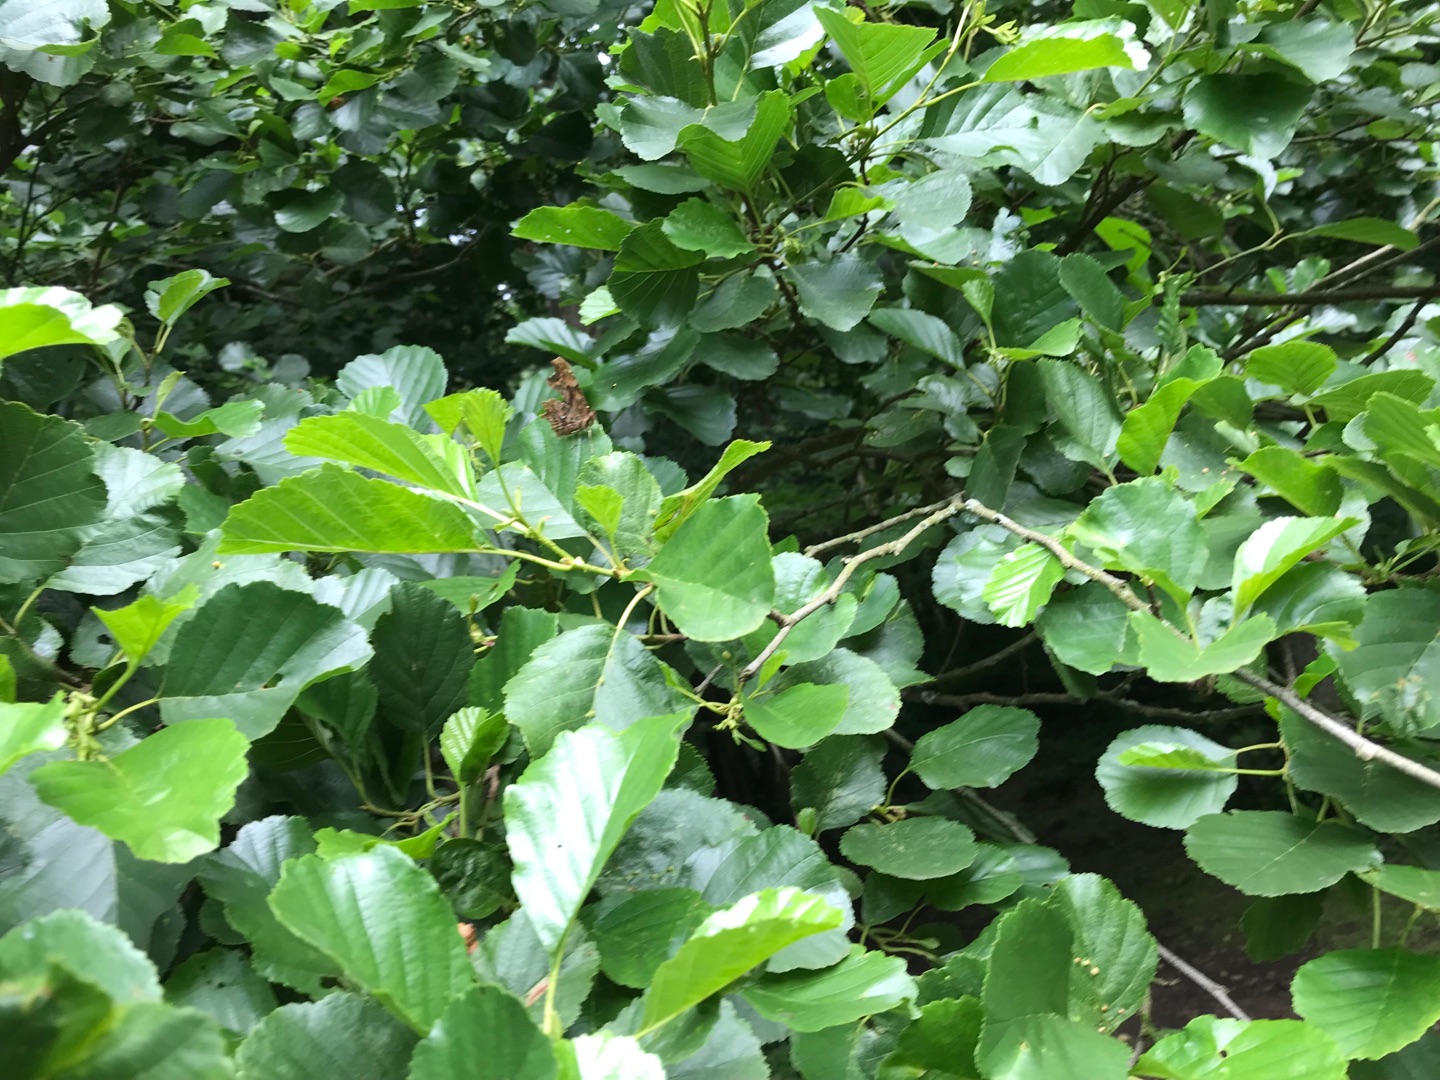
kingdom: Animalia
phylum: Arthropoda
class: Insecta
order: Lepidoptera
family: Nymphalidae
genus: Polygonia
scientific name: Polygonia c-album
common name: Det hvide C
